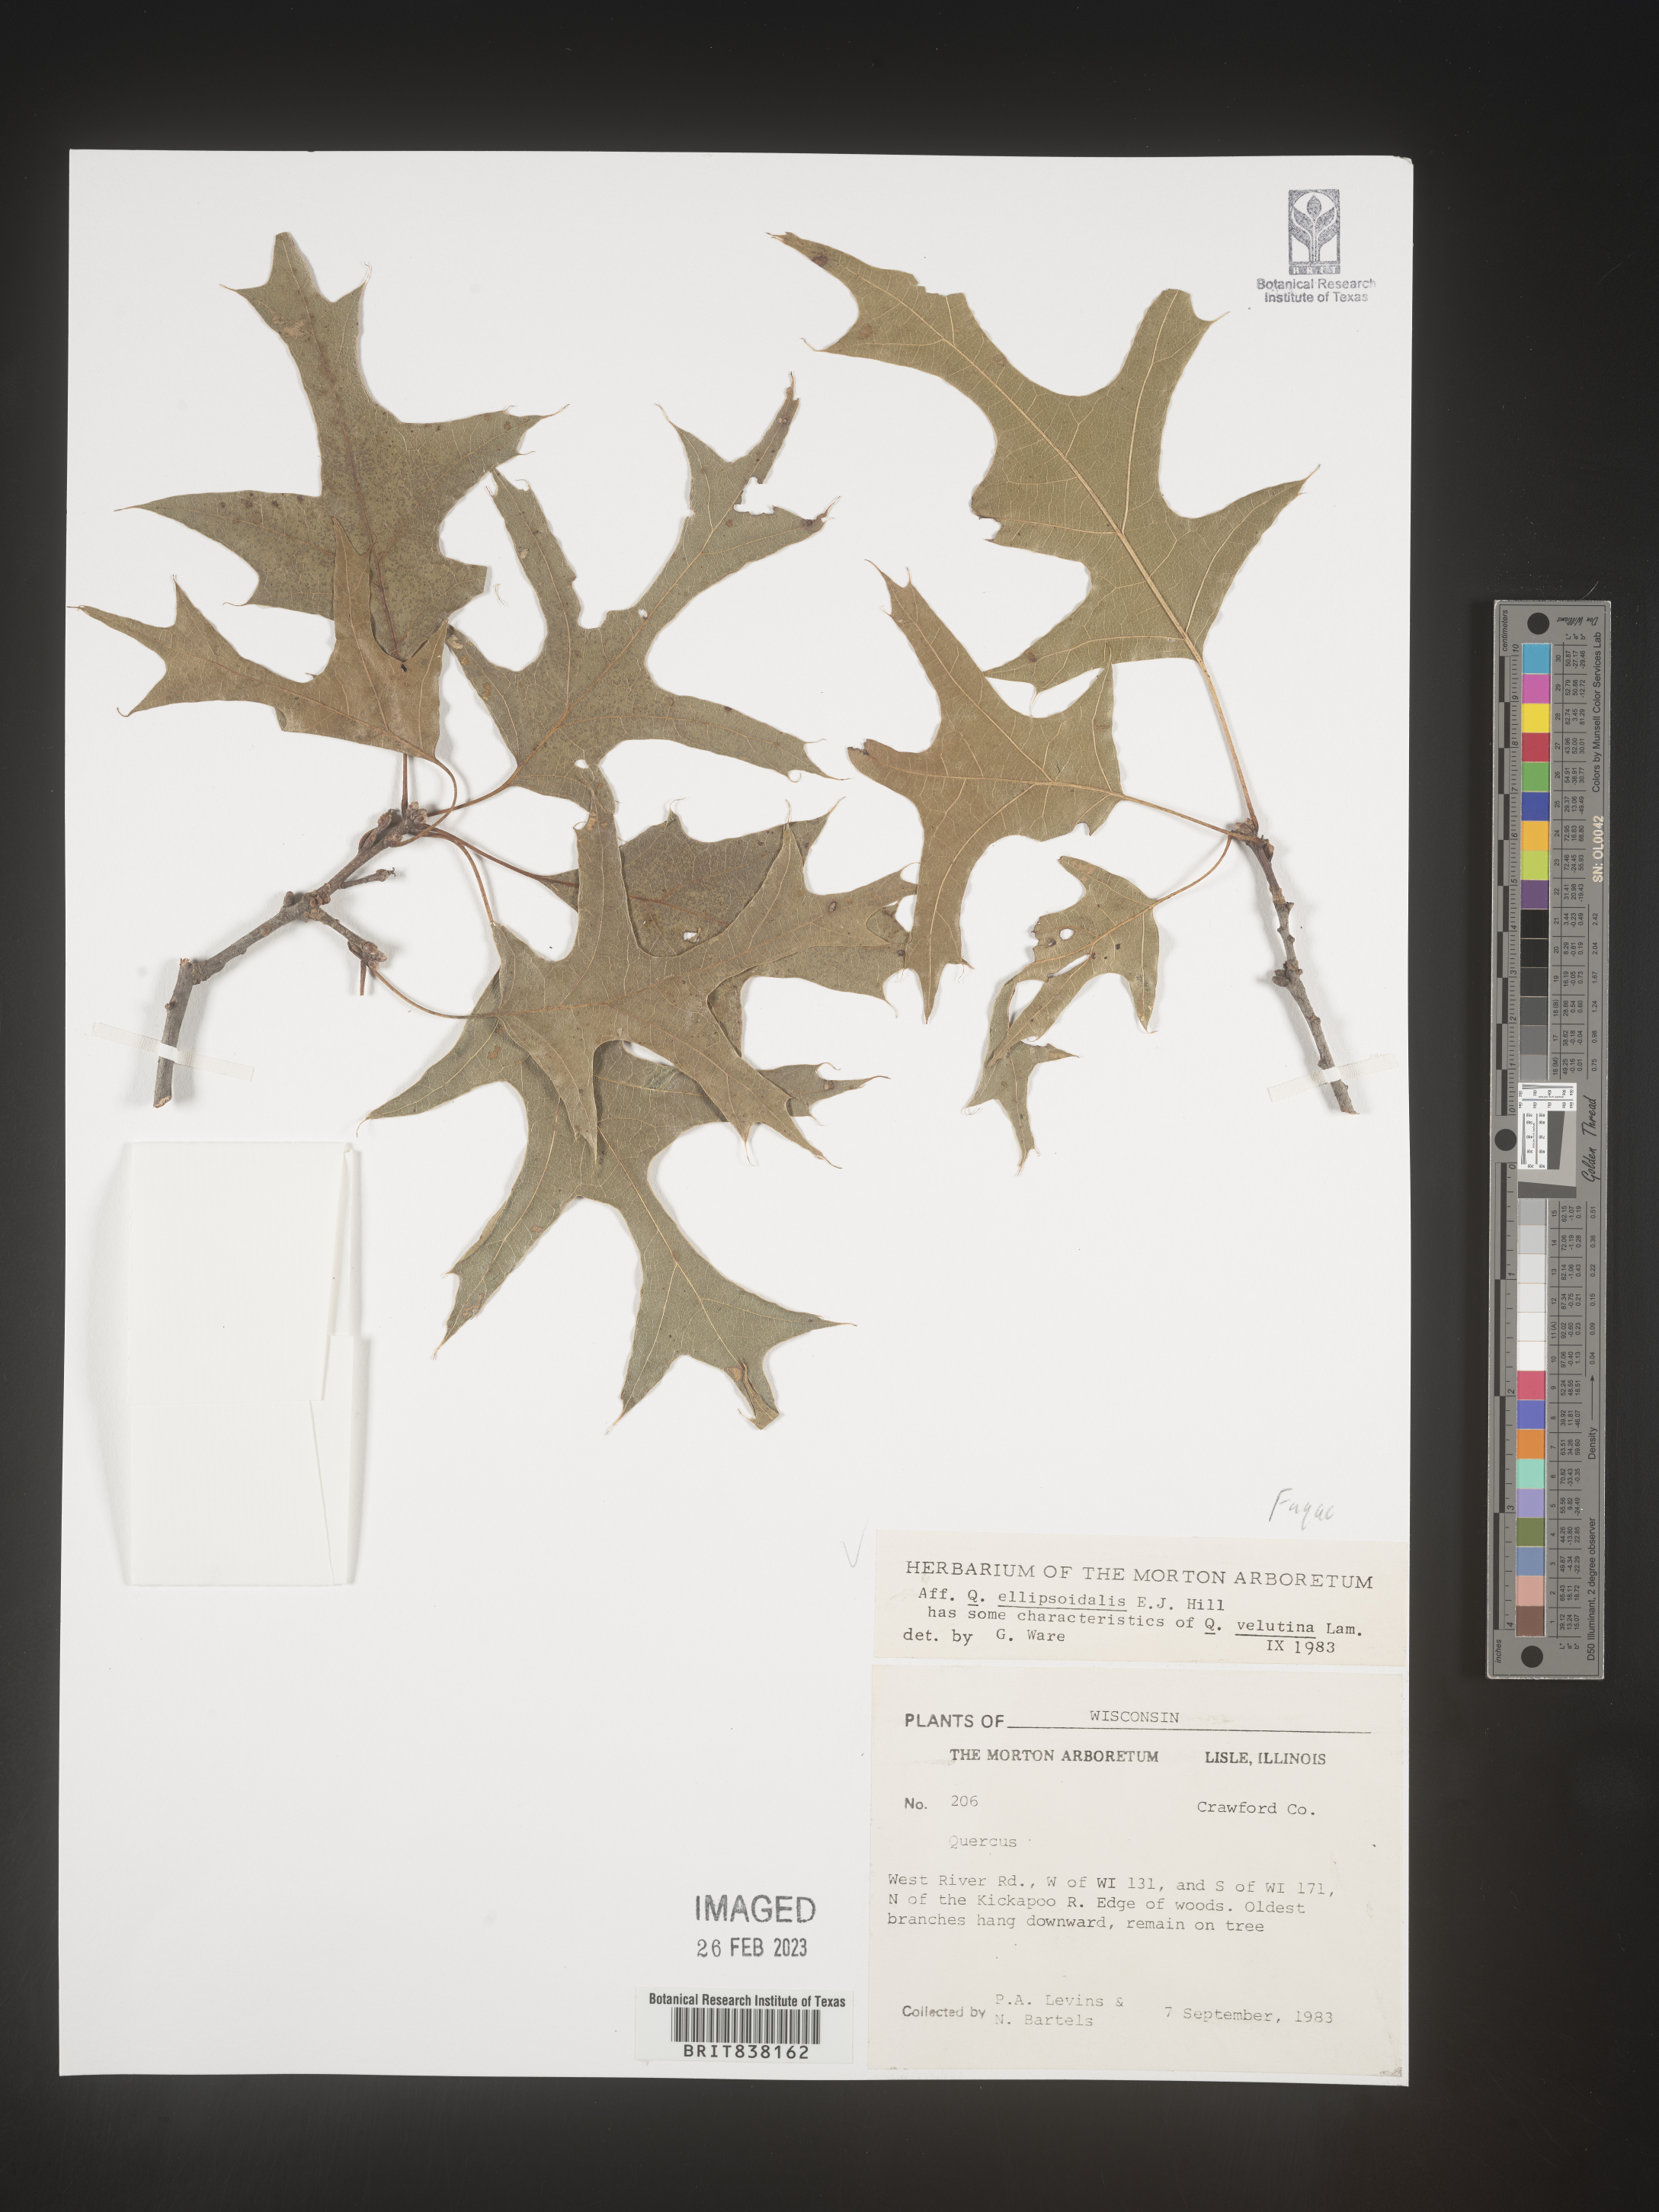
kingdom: Plantae
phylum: Tracheophyta
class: Magnoliopsida
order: Fagales
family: Fagaceae
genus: Quercus
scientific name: Quercus ellipsoidalis
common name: Hill's oak
